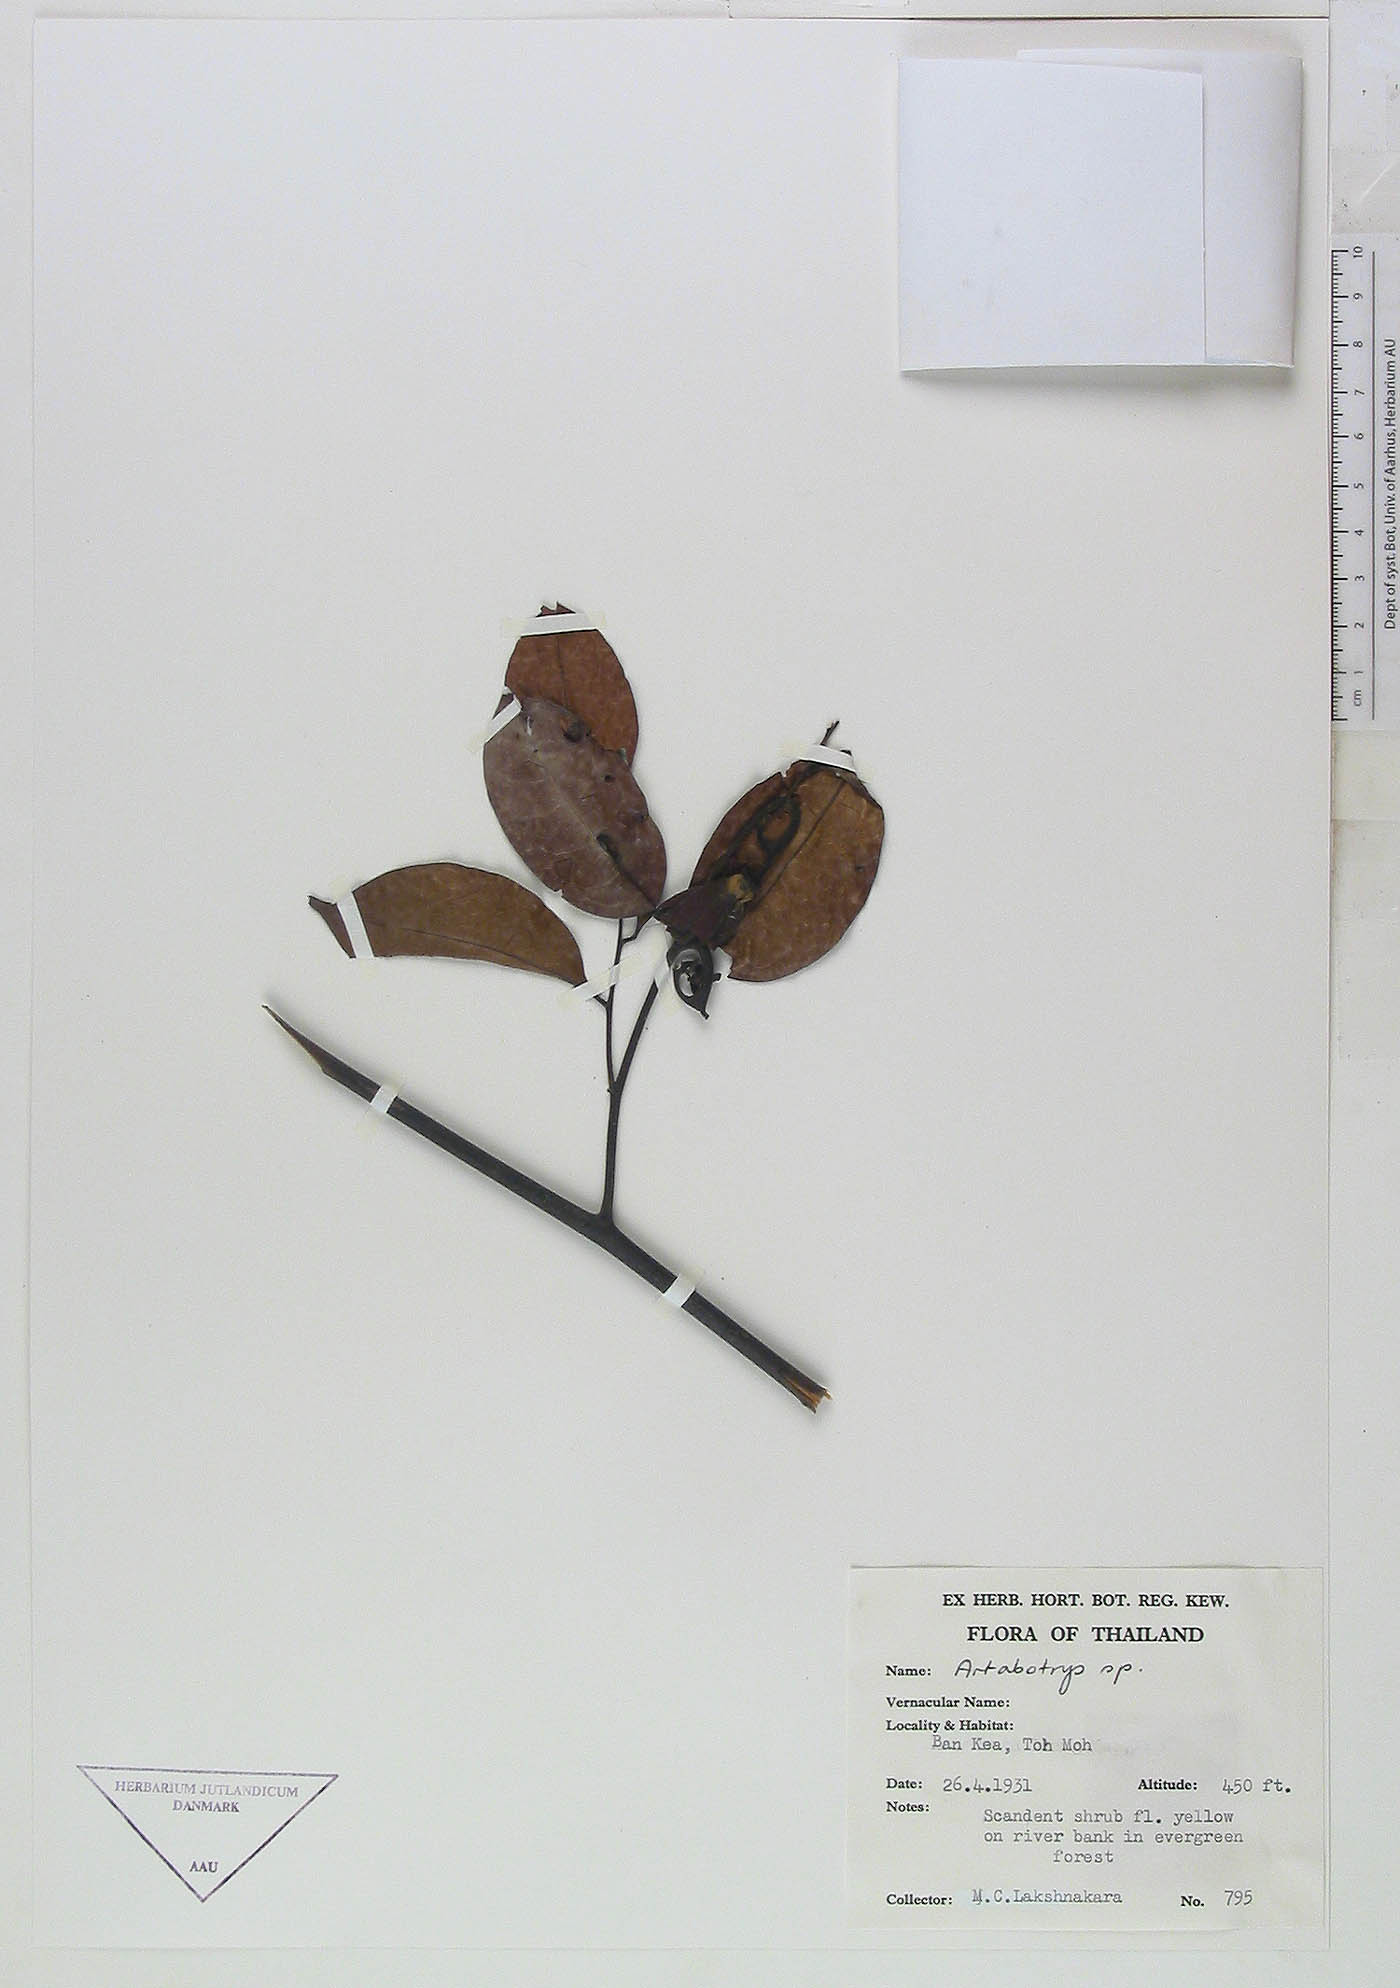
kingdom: Plantae
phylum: Tracheophyta
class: Magnoliopsida
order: Magnoliales
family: Annonaceae
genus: Artabotrys
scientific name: Artabotrys
